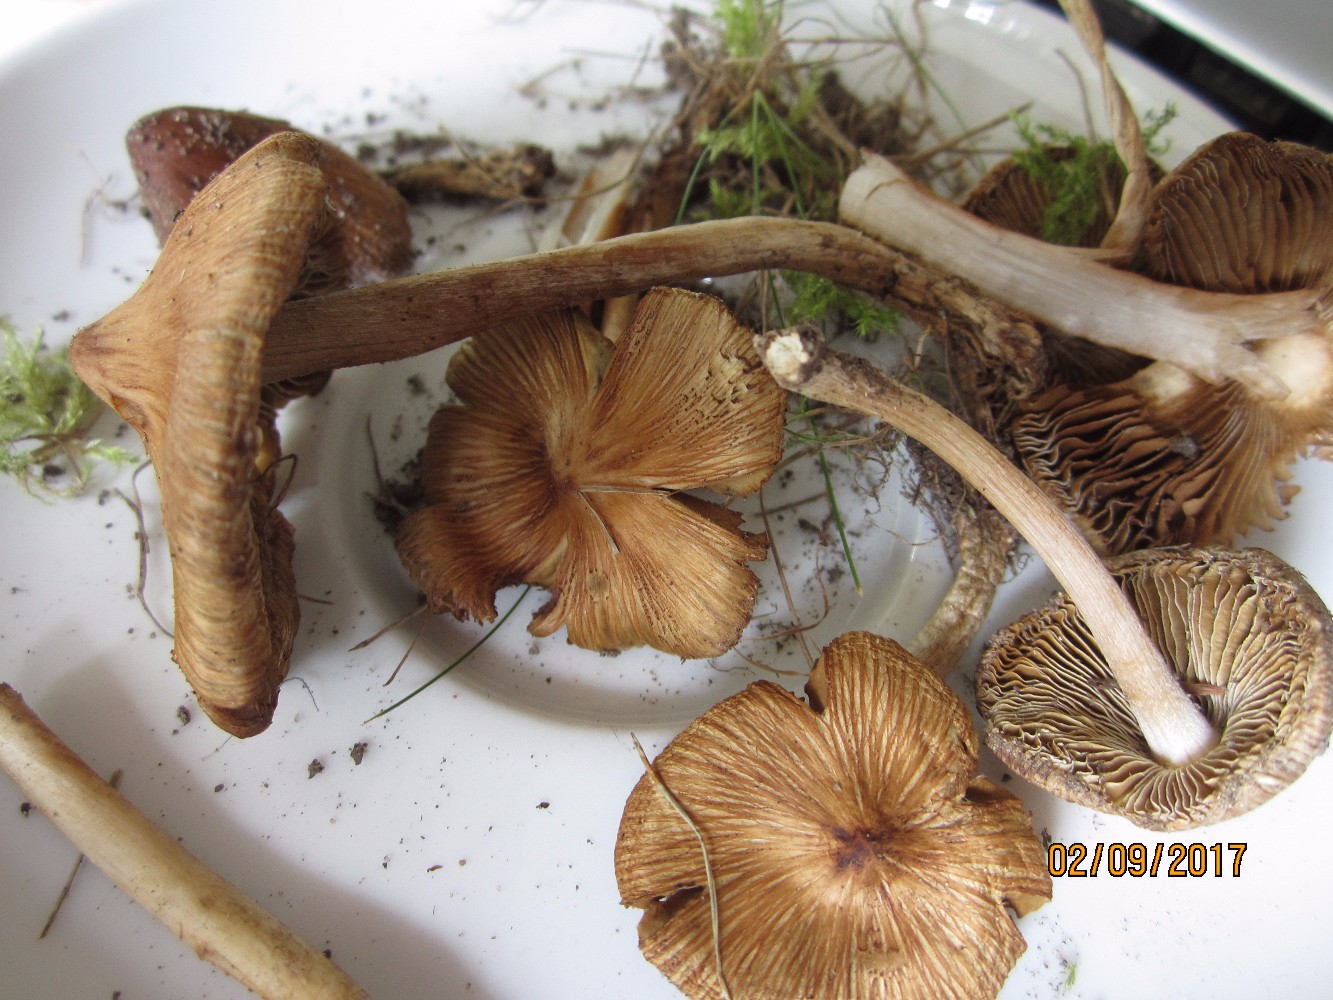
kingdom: Fungi
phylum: Basidiomycota
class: Agaricomycetes
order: Agaricales
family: Inocybaceae
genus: Pseudosperma
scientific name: Pseudosperma
